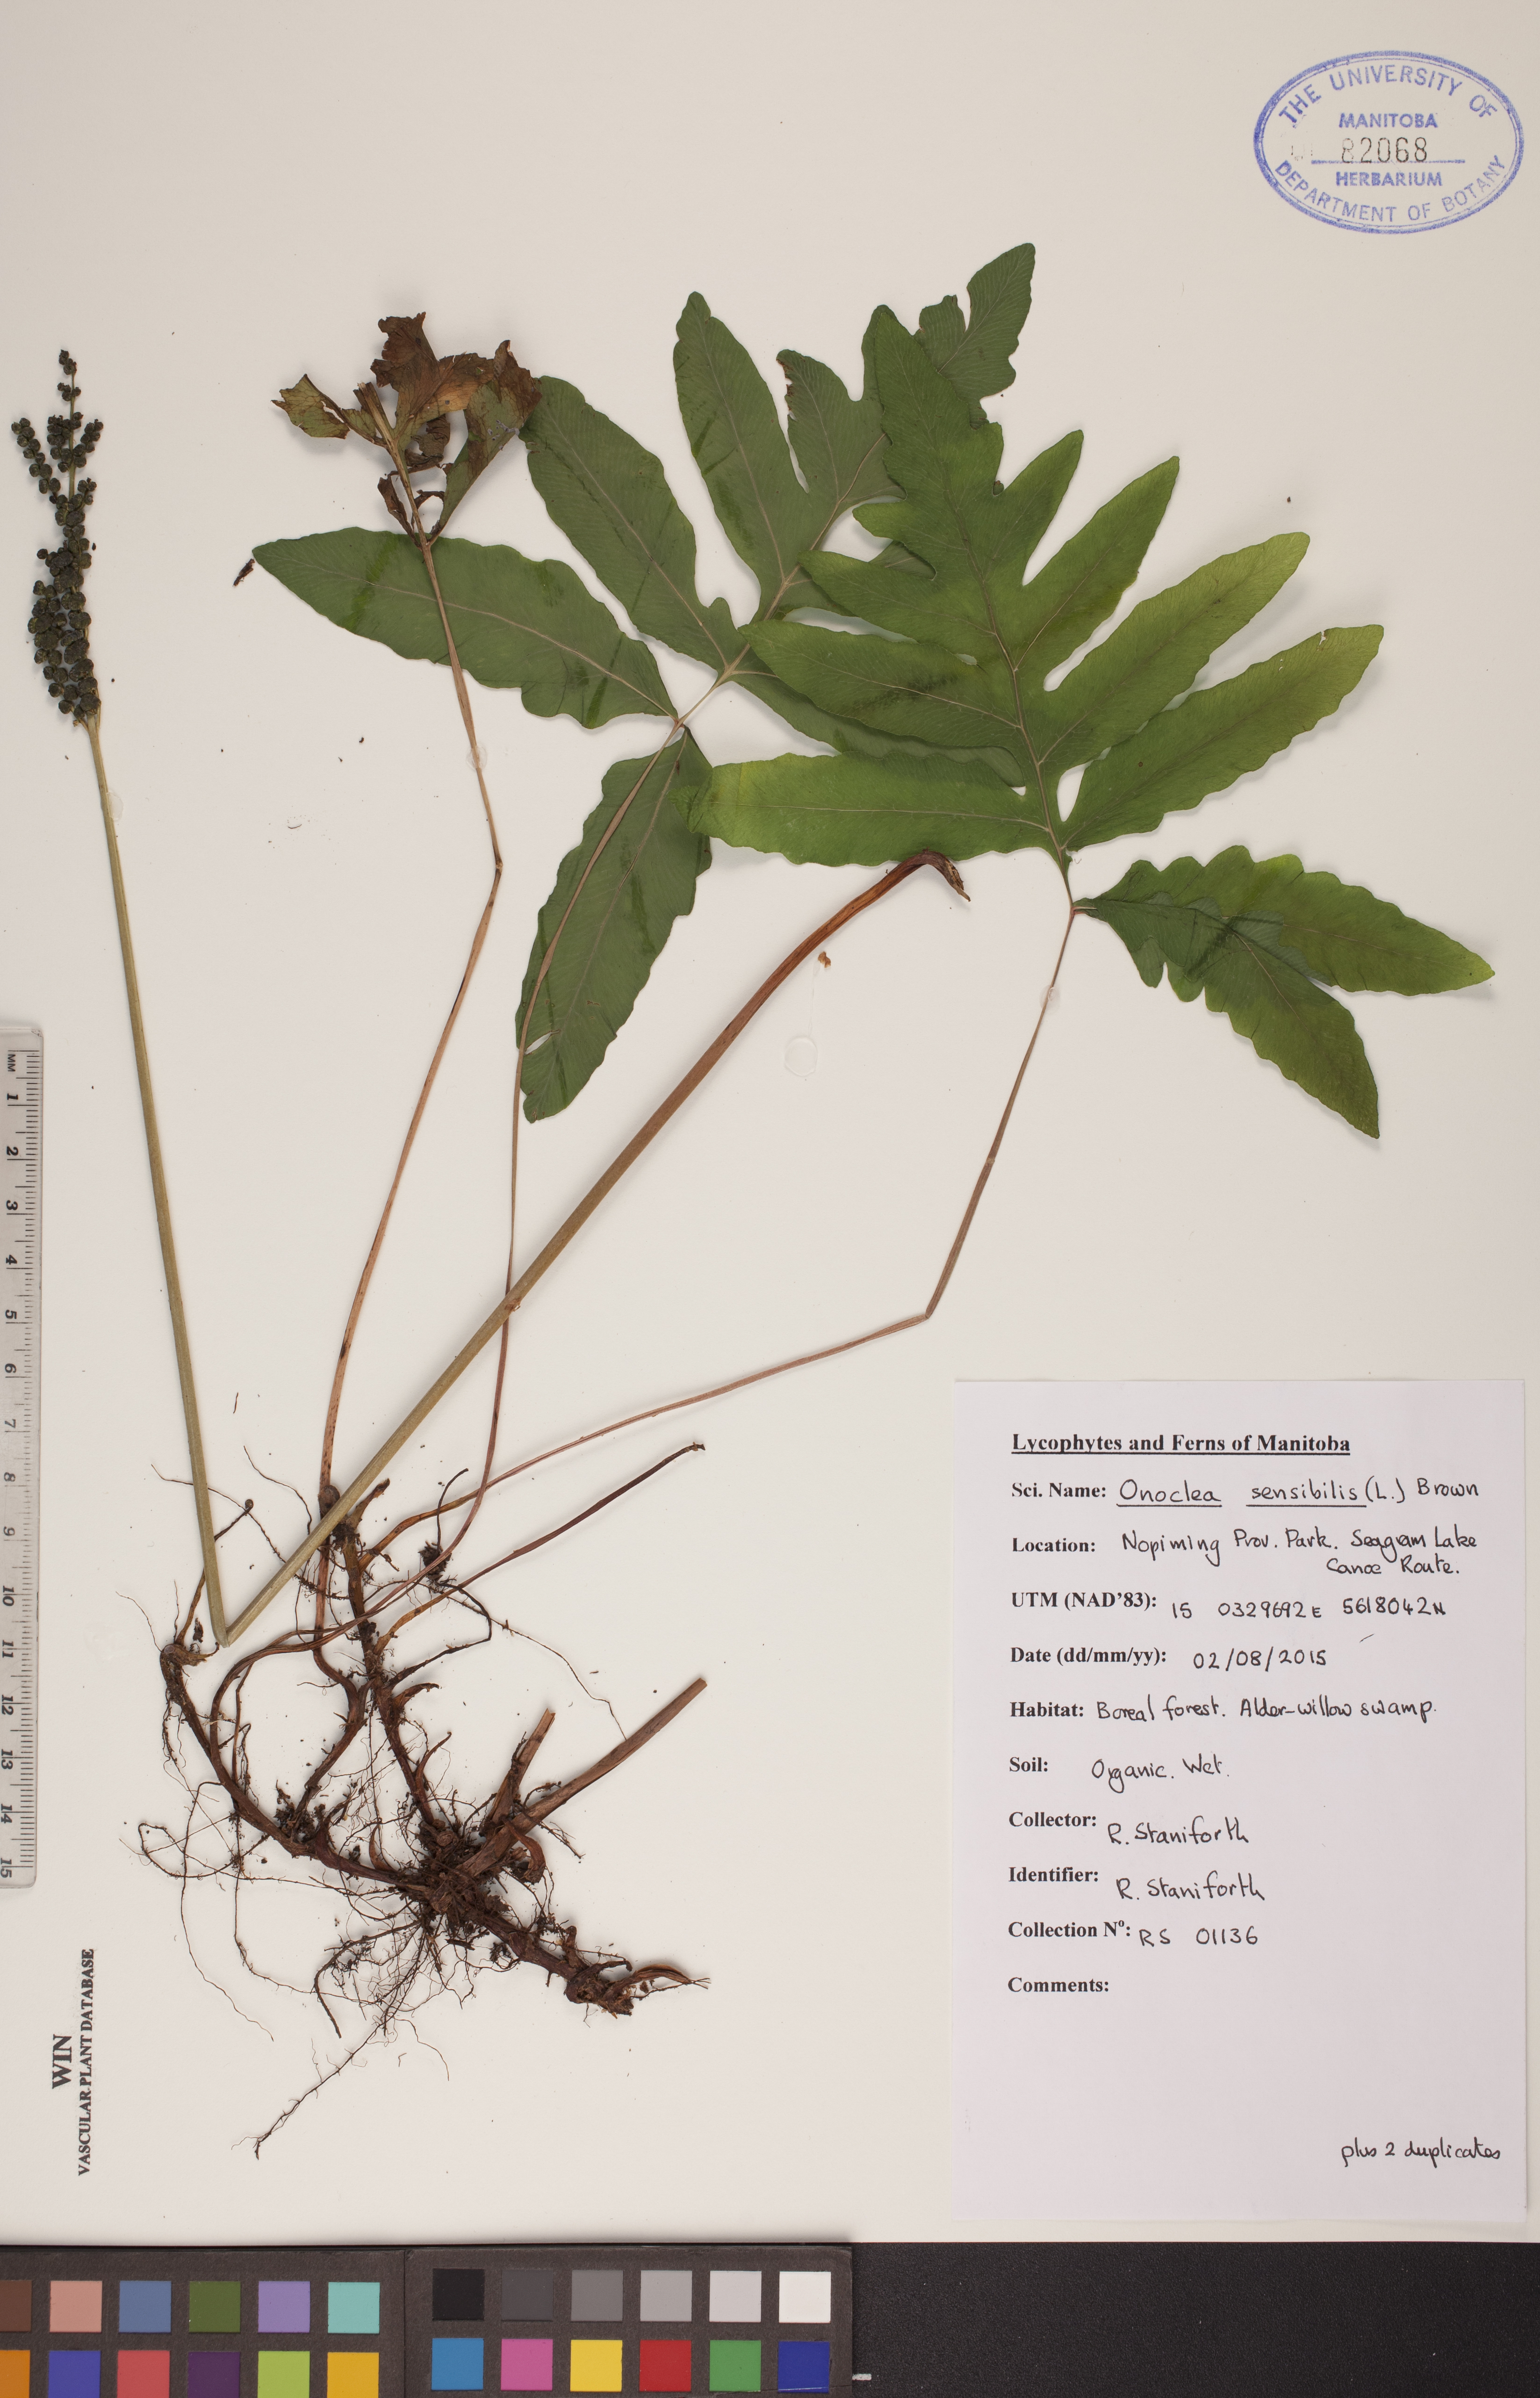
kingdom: Plantae
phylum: Tracheophyta
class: Polypodiopsida
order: Polypodiales
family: Onocleaceae
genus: Onoclea
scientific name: Onoclea sensibilis
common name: Sensitive fern
